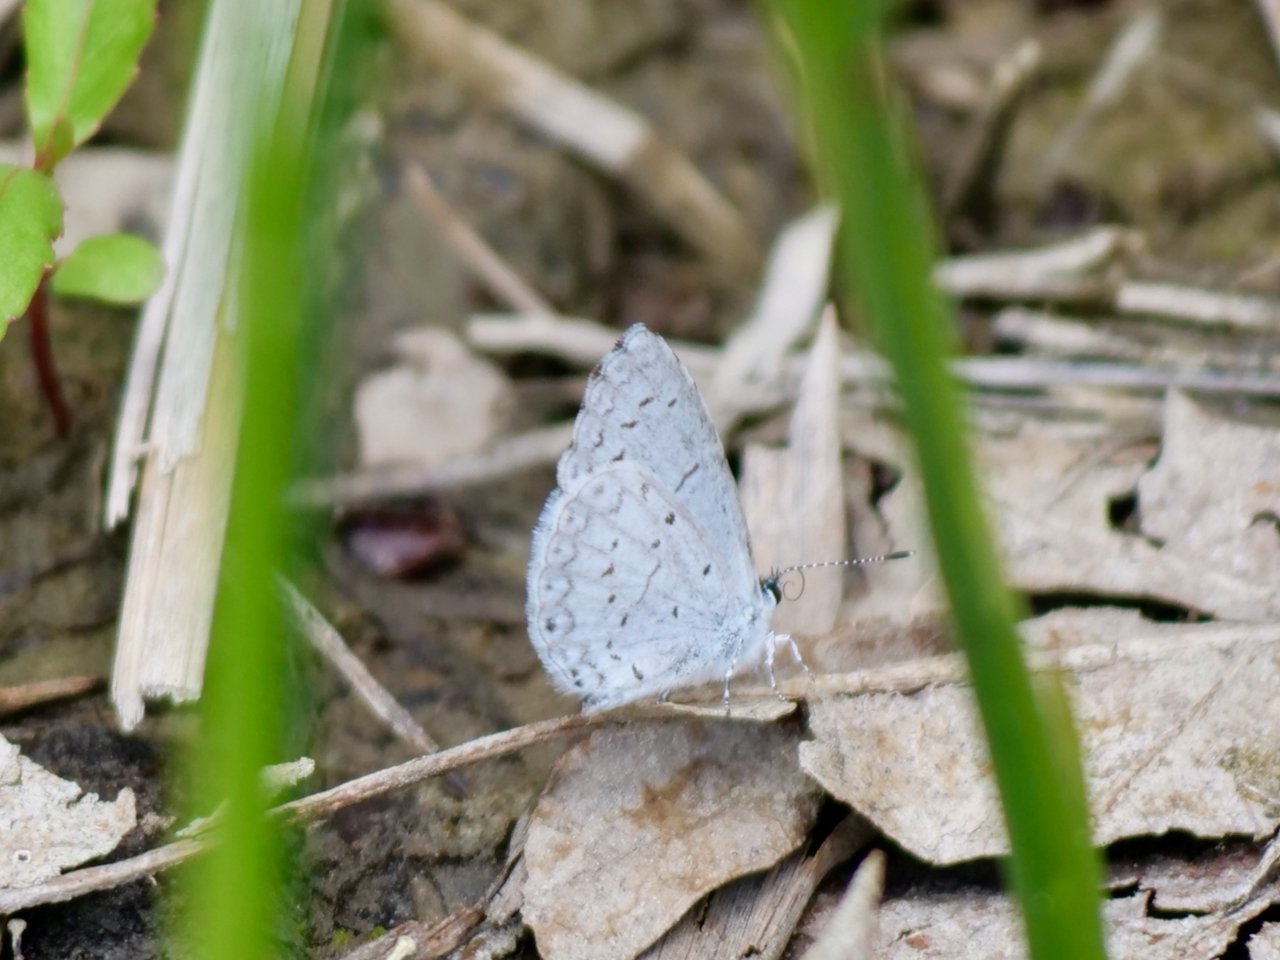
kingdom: Animalia
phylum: Arthropoda
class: Insecta
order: Lepidoptera
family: Lycaenidae
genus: Cyaniris
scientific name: Cyaniris neglecta
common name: Summer Azure
